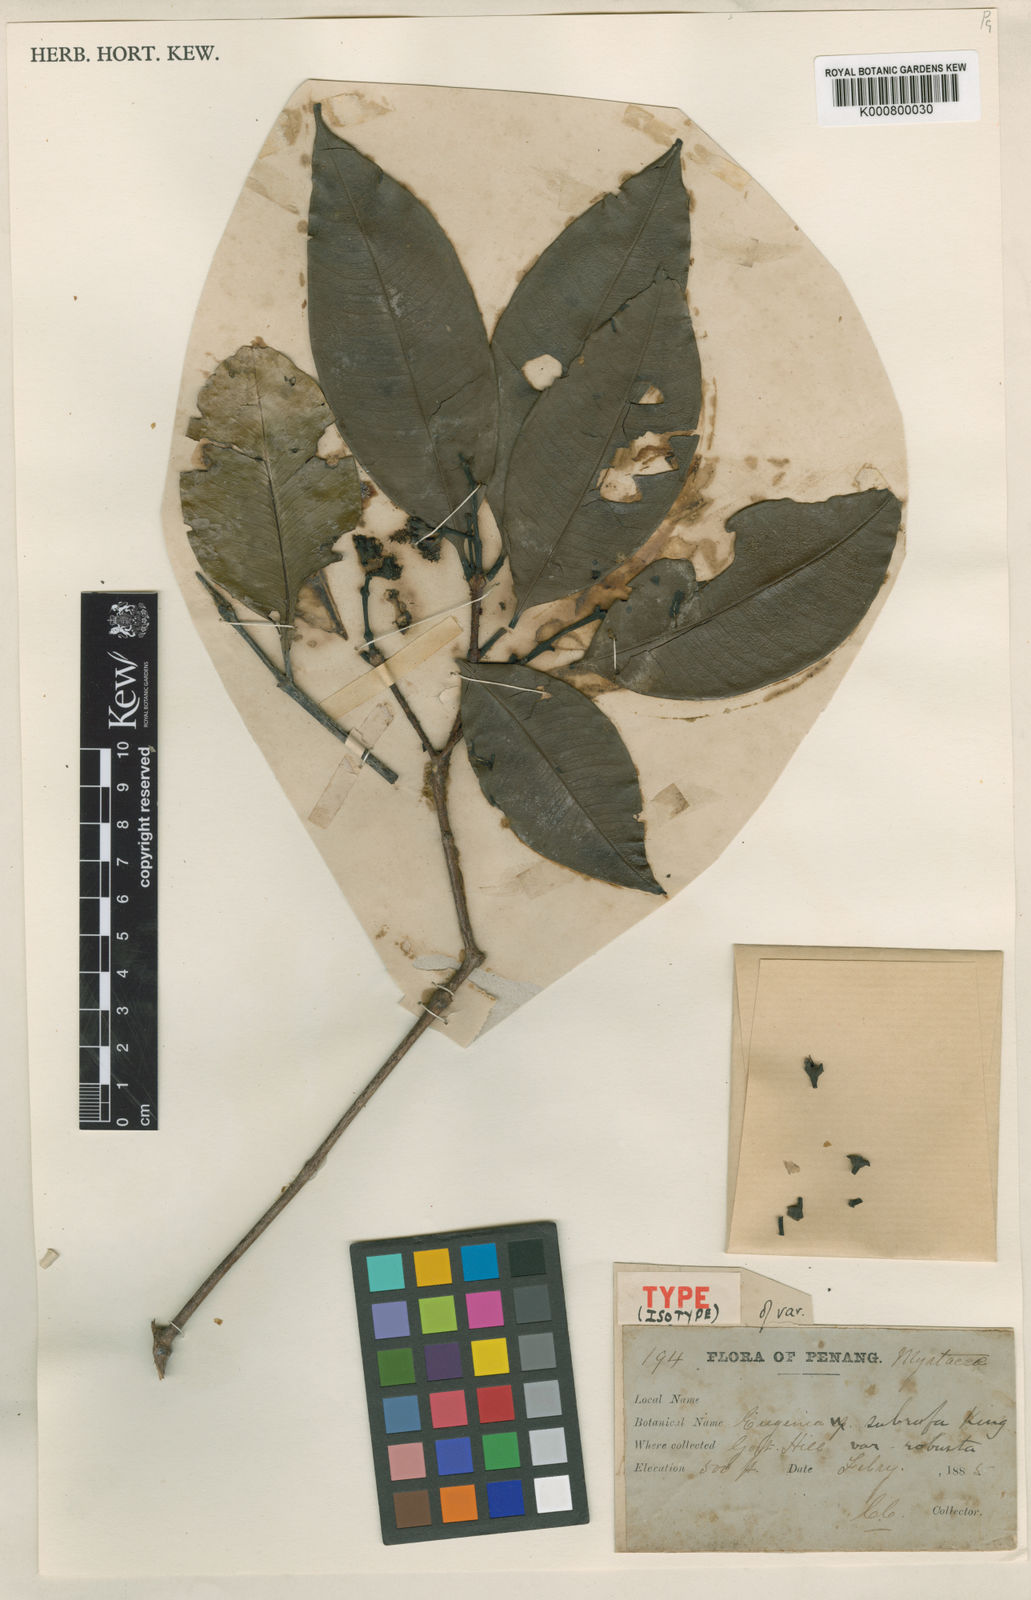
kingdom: Plantae
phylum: Tracheophyta
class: Magnoliopsida
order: Myrtales
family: Myrtaceae
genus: Syzygium
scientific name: Syzygium griffithii
